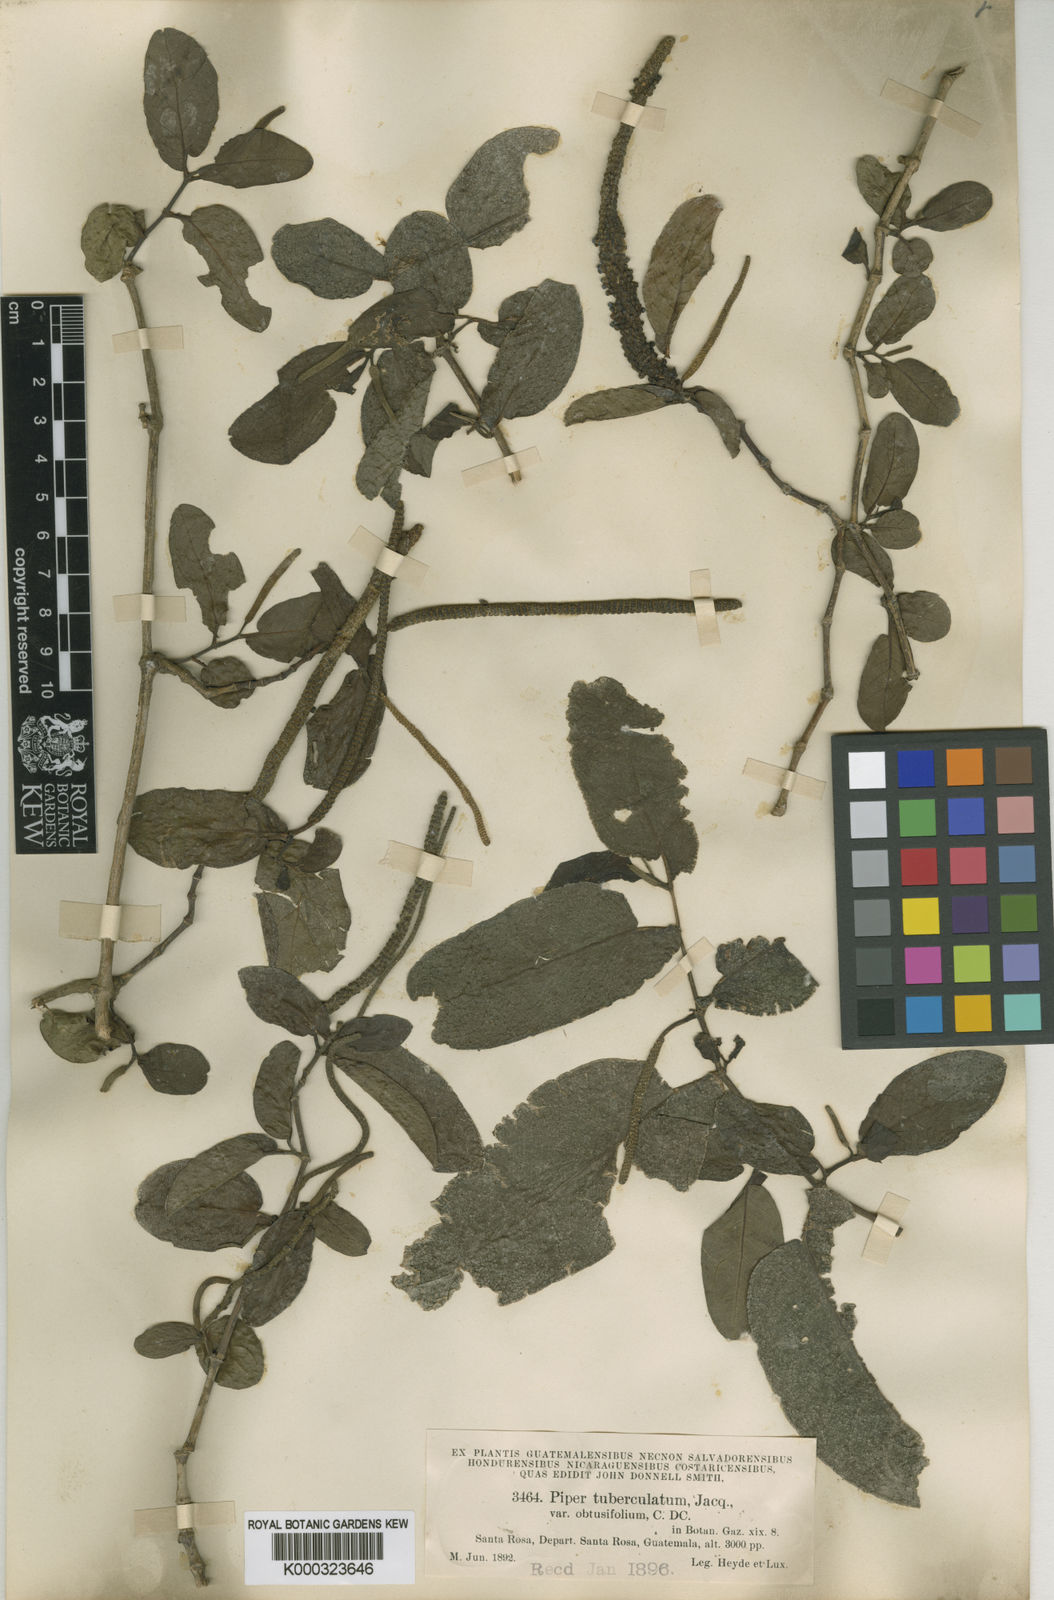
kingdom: Plantae
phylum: Tracheophyta
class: Magnoliopsida
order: Piperales
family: Piperaceae
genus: Piper
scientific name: Piper tuberculatum
